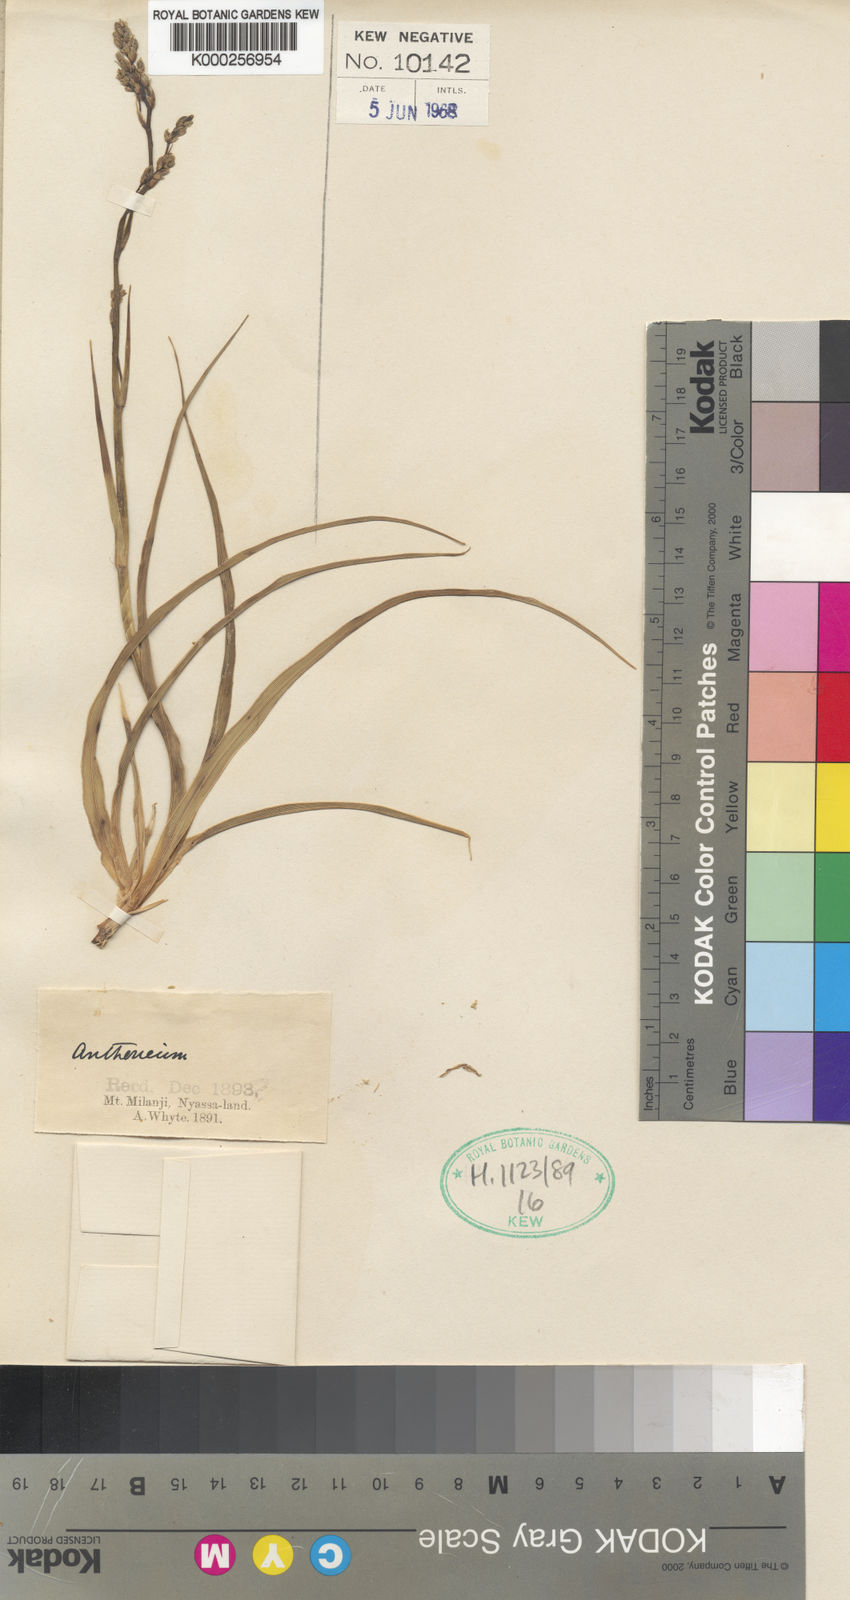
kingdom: Plantae
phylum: Tracheophyta
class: Liliopsida
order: Asparagales
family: Asparagaceae
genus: Chlorophytum
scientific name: Chlorophytum nyasae
